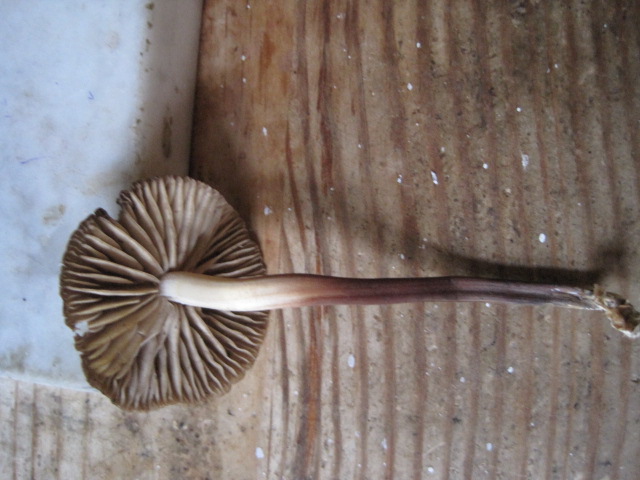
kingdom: Fungi
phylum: Basidiomycota
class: Agaricomycetes
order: Agaricales
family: Marasmiaceae
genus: Marasmius
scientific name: Marasmius wynneae
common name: hvælvet bruskhat
